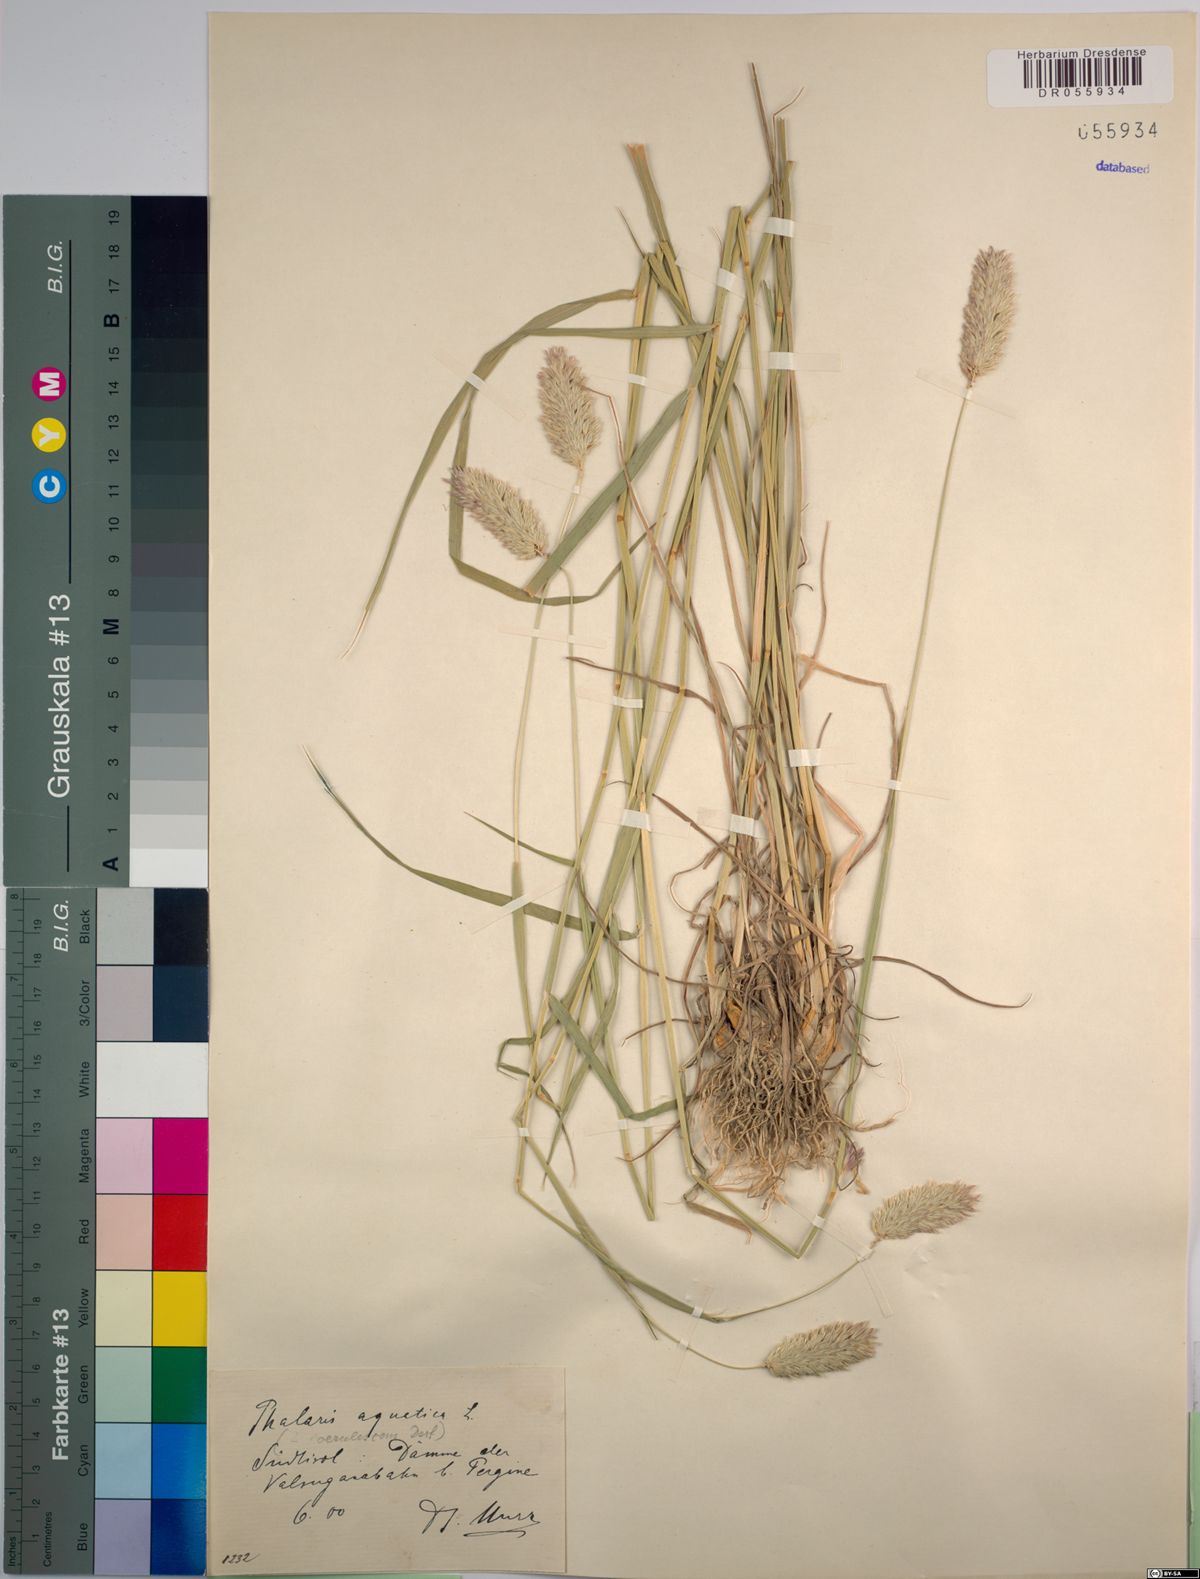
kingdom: Plantae
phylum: Tracheophyta
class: Liliopsida
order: Poales
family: Poaceae
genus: Phalaris
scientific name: Phalaris aquatica
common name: Bulbous canary-grass
